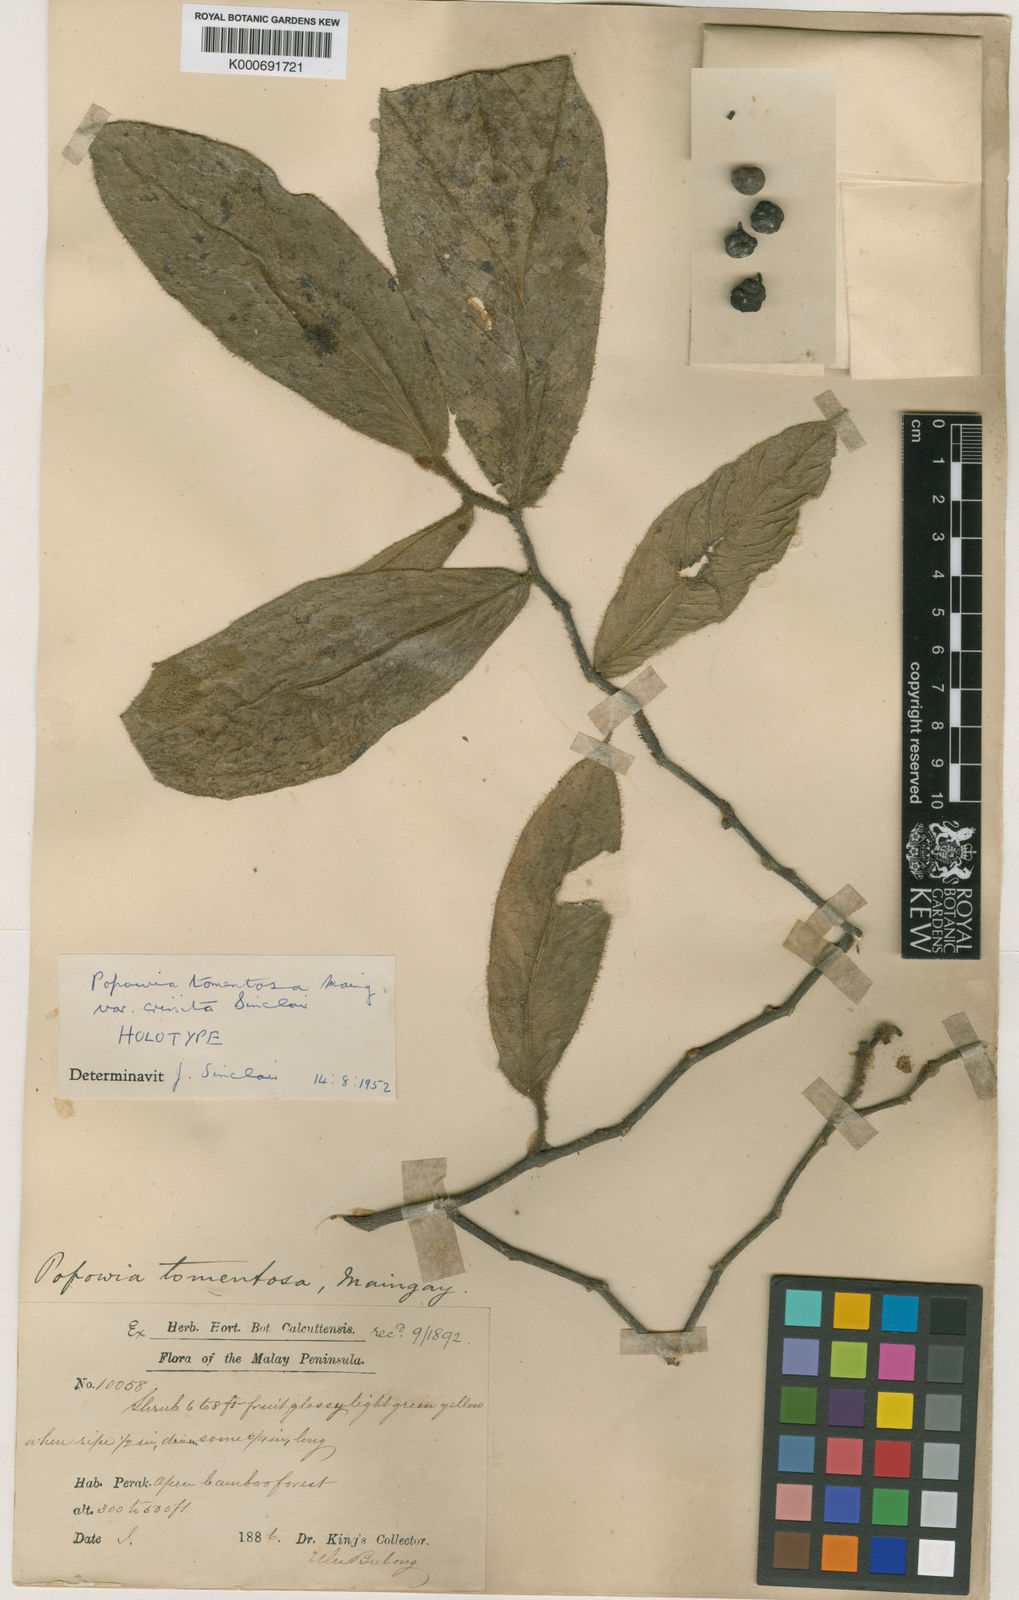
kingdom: Plantae
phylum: Tracheophyta
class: Magnoliopsida
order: Magnoliales
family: Annonaceae
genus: Popowia
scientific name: Popowia tomentosa
